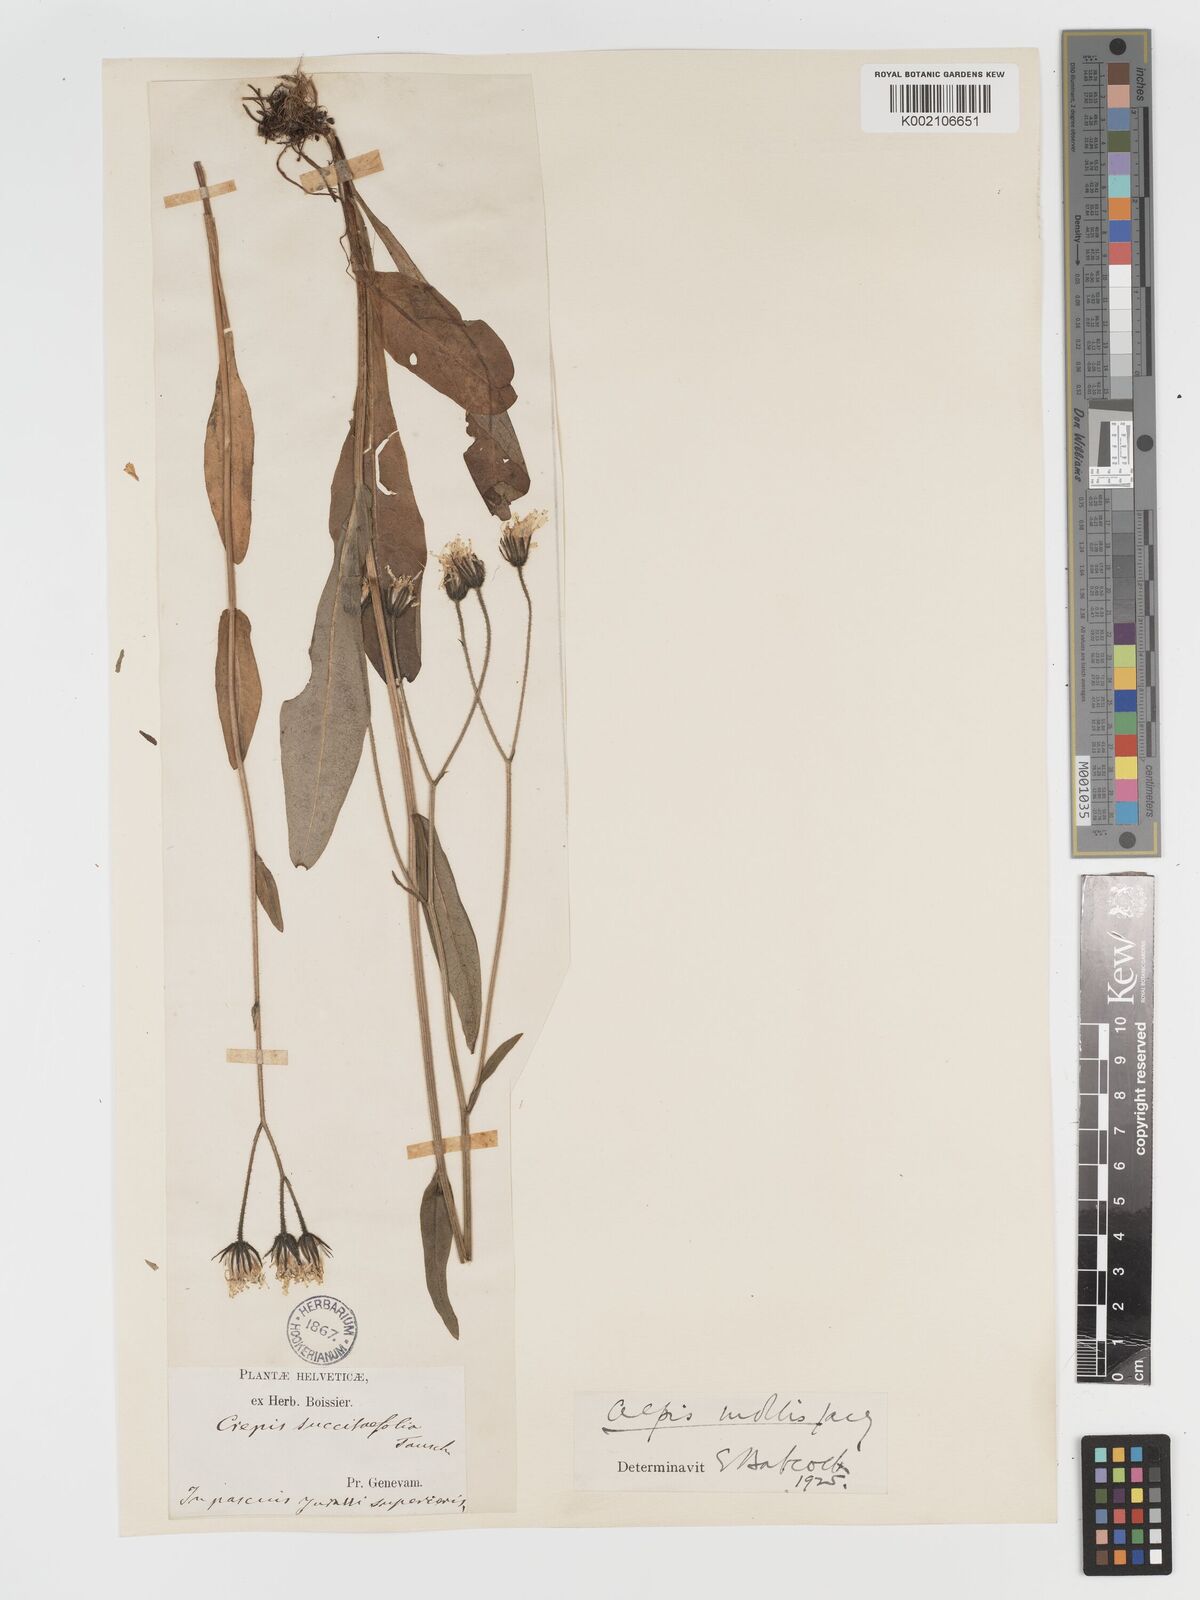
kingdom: Plantae
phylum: Tracheophyta
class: Magnoliopsida
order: Asterales
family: Asteraceae
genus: Crepis
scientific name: Crepis mollis
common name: Northern hawk's-beard
